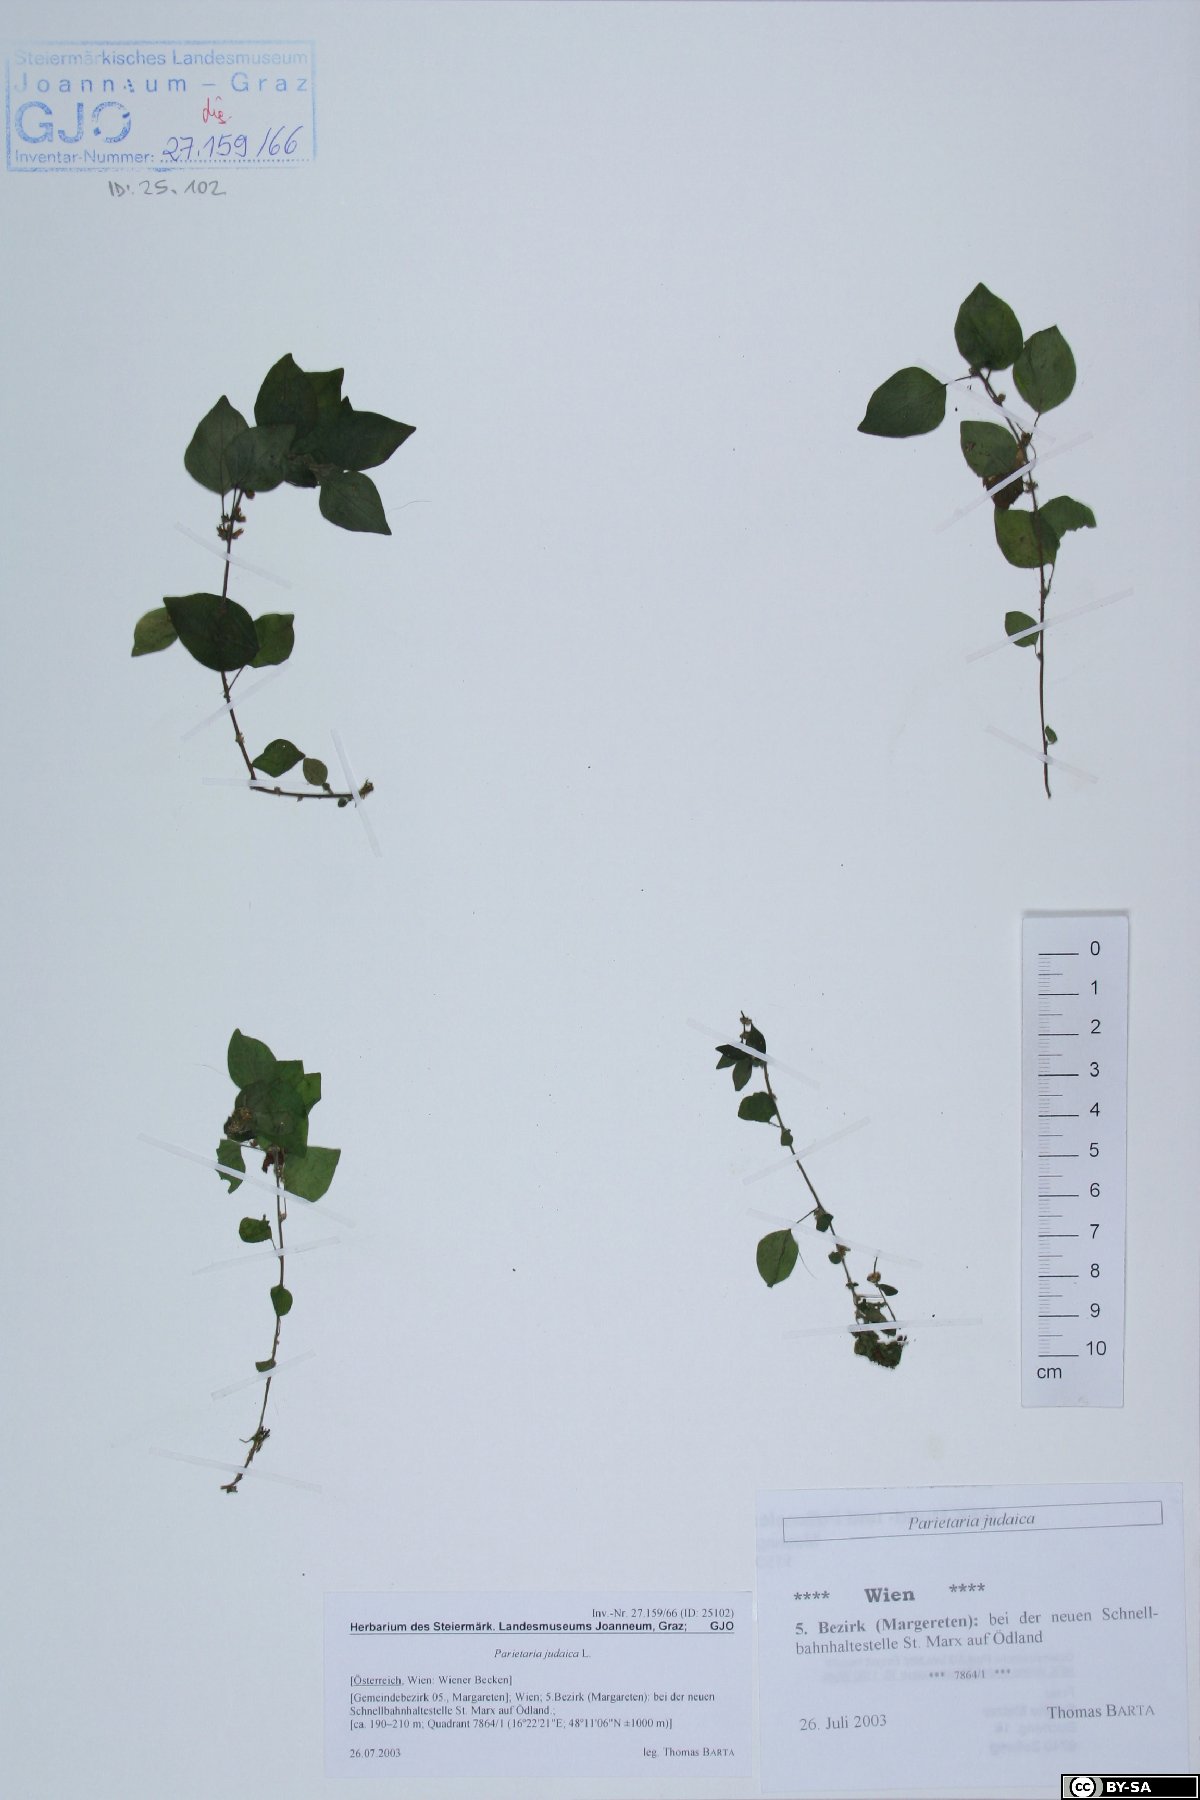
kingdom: Plantae
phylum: Tracheophyta
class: Magnoliopsida
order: Rosales
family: Urticaceae
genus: Parietaria
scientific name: Parietaria judaica
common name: Pellitory-of-the-wall
